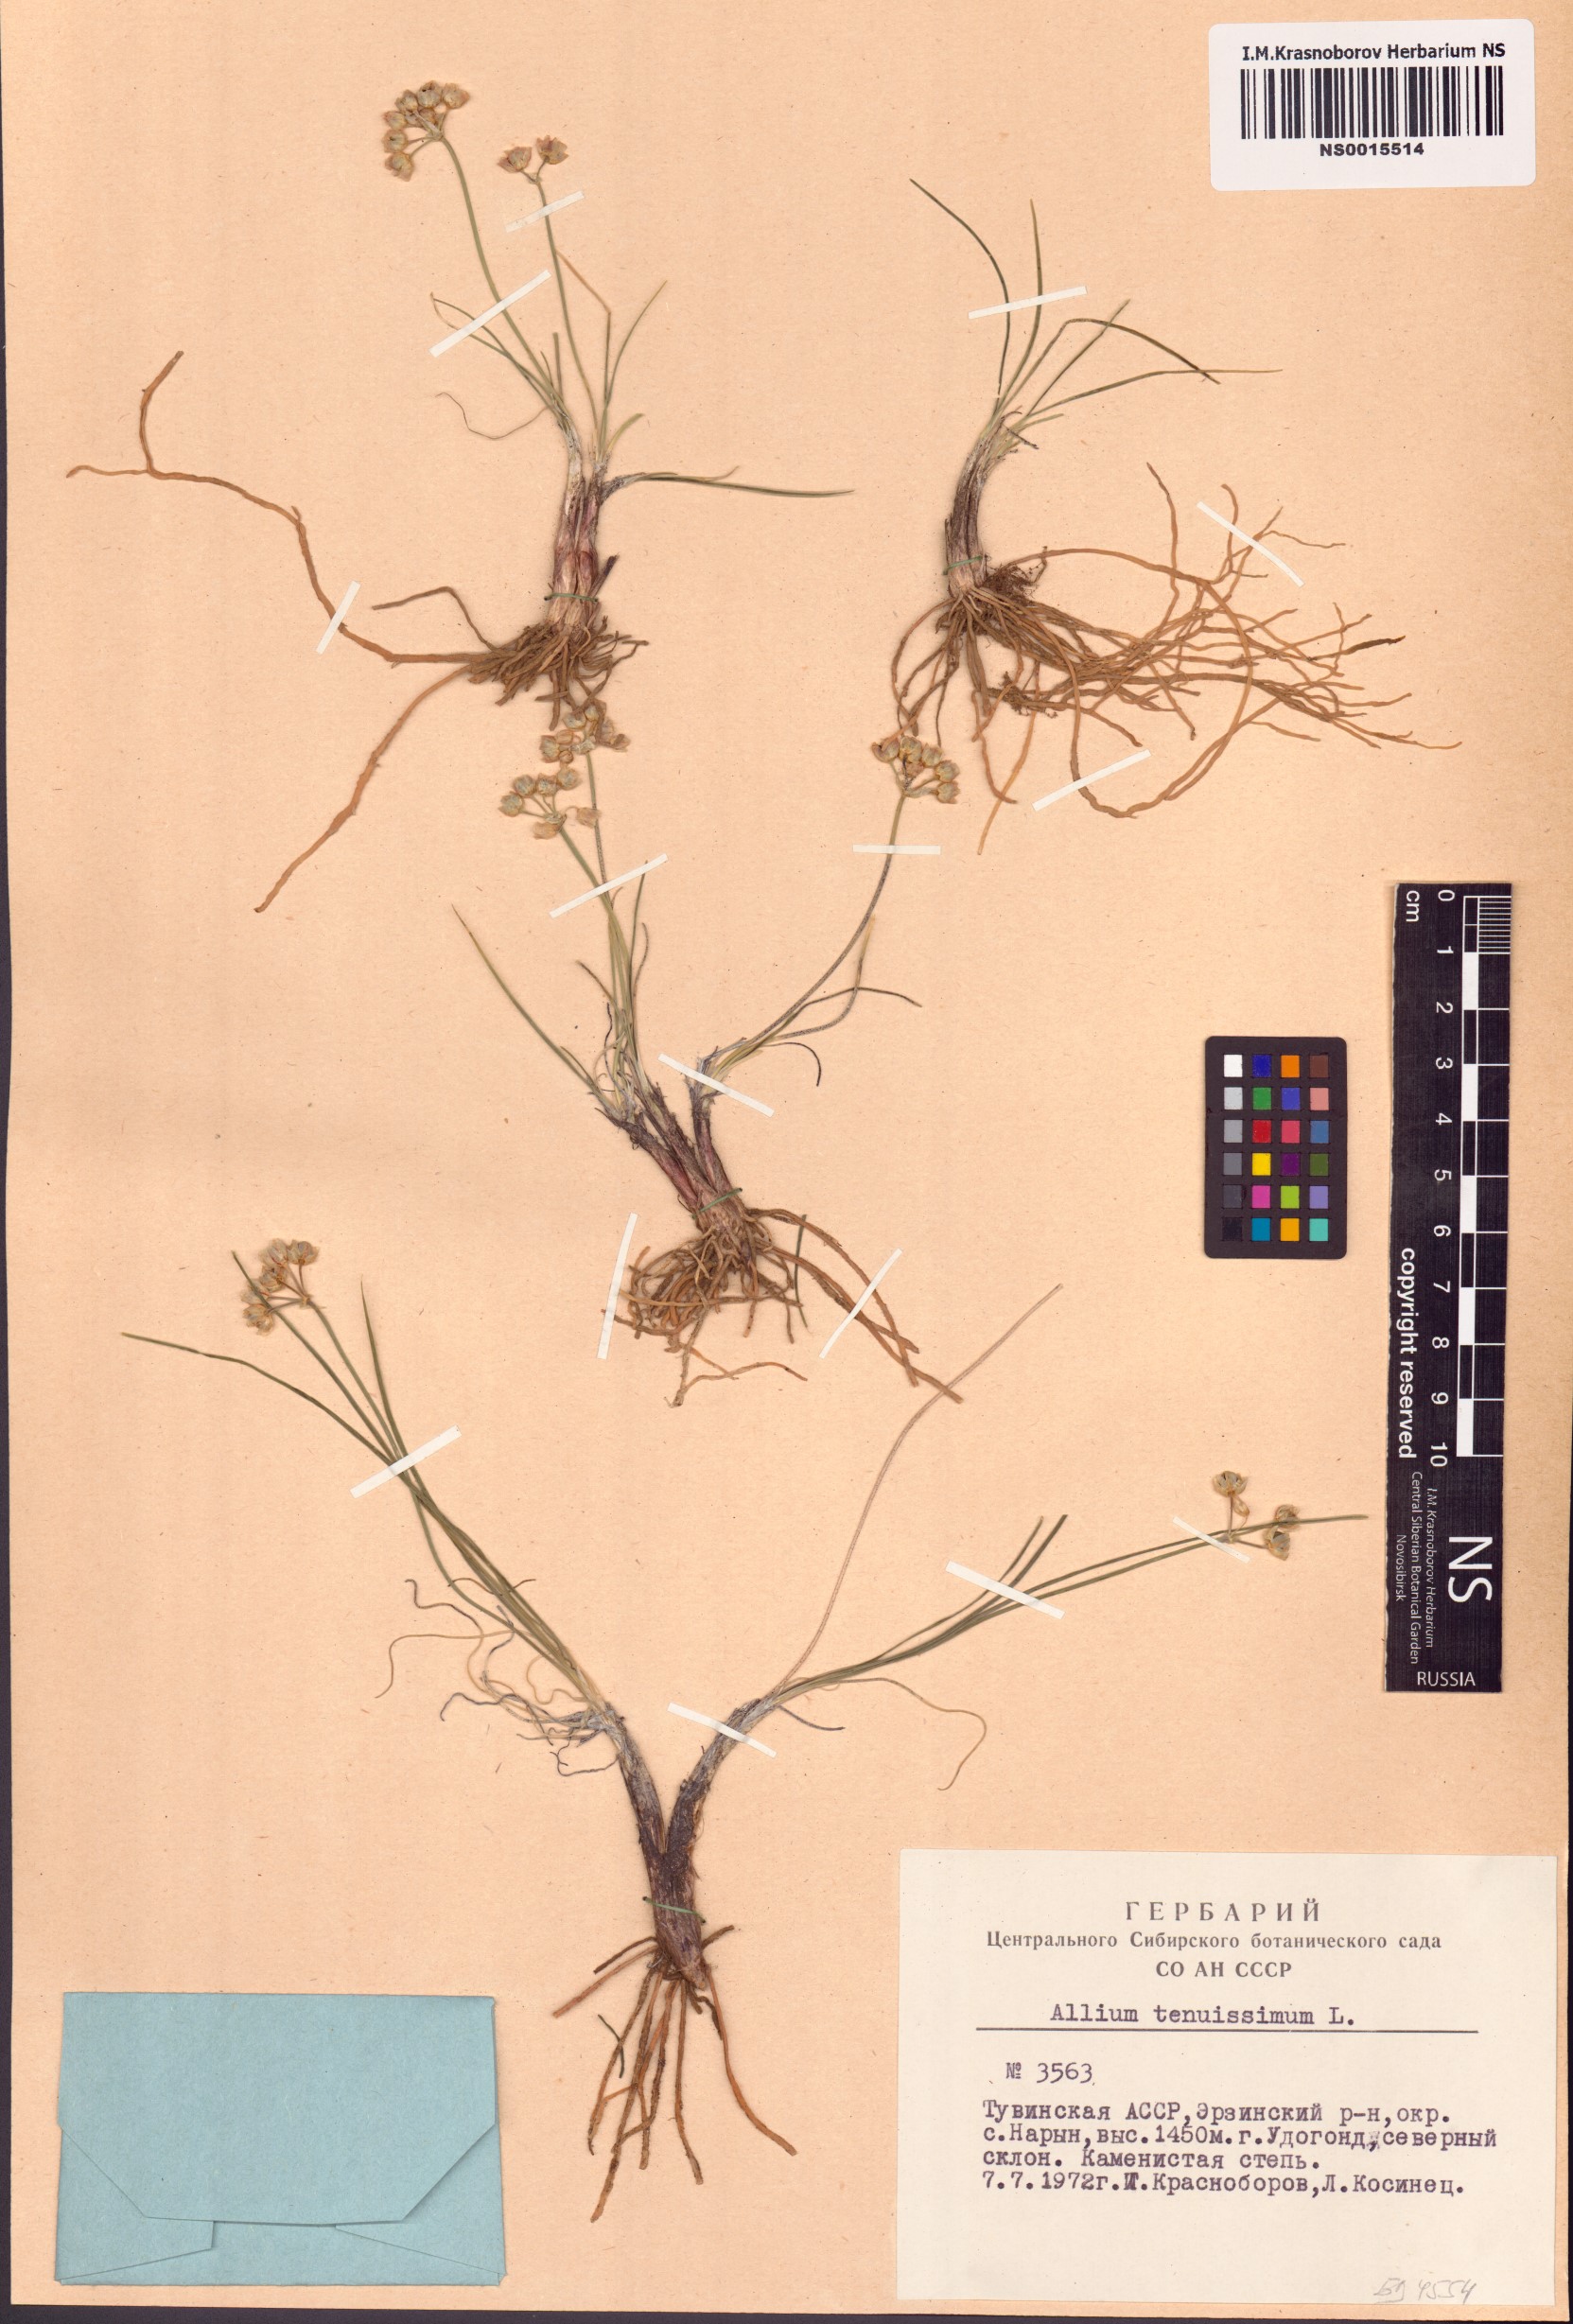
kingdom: Plantae
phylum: Tracheophyta
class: Liliopsida
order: Asparagales
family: Amaryllidaceae
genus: Allium
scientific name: Allium tenuissimum
